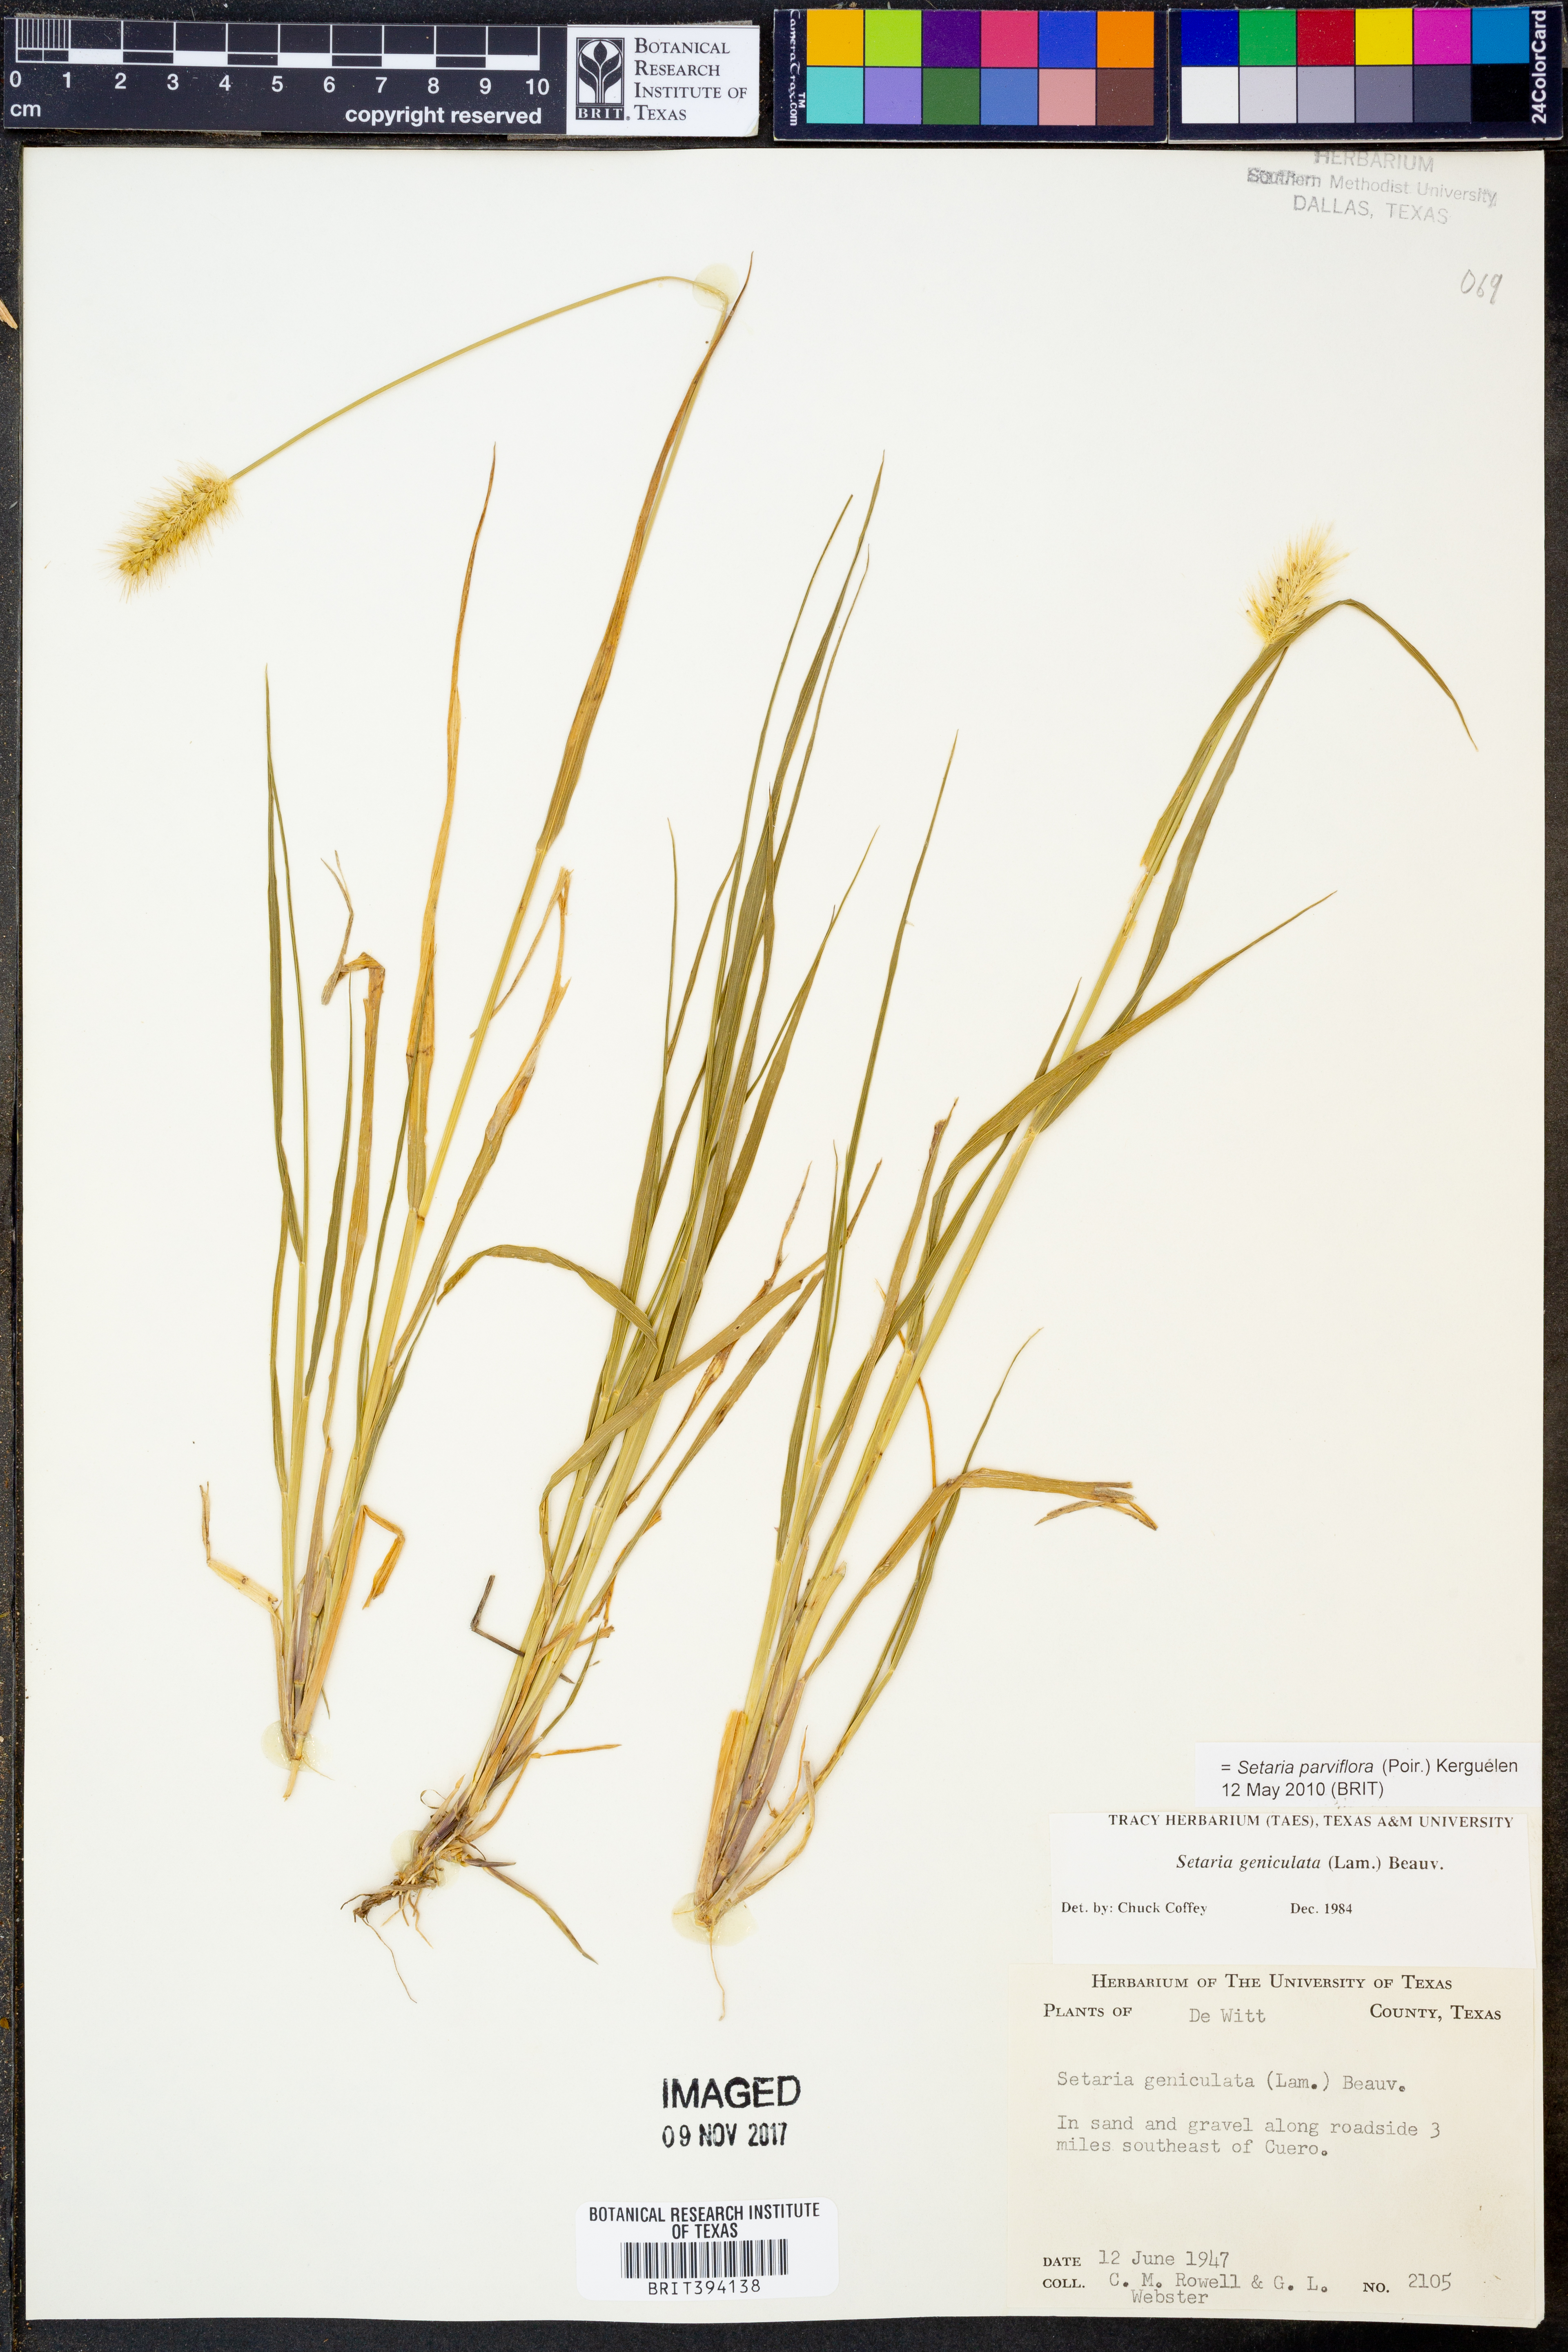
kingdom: Plantae
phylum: Tracheophyta
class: Liliopsida
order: Poales
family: Poaceae
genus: Setaria
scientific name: Setaria parviflora
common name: Knotroot bristle-grass
